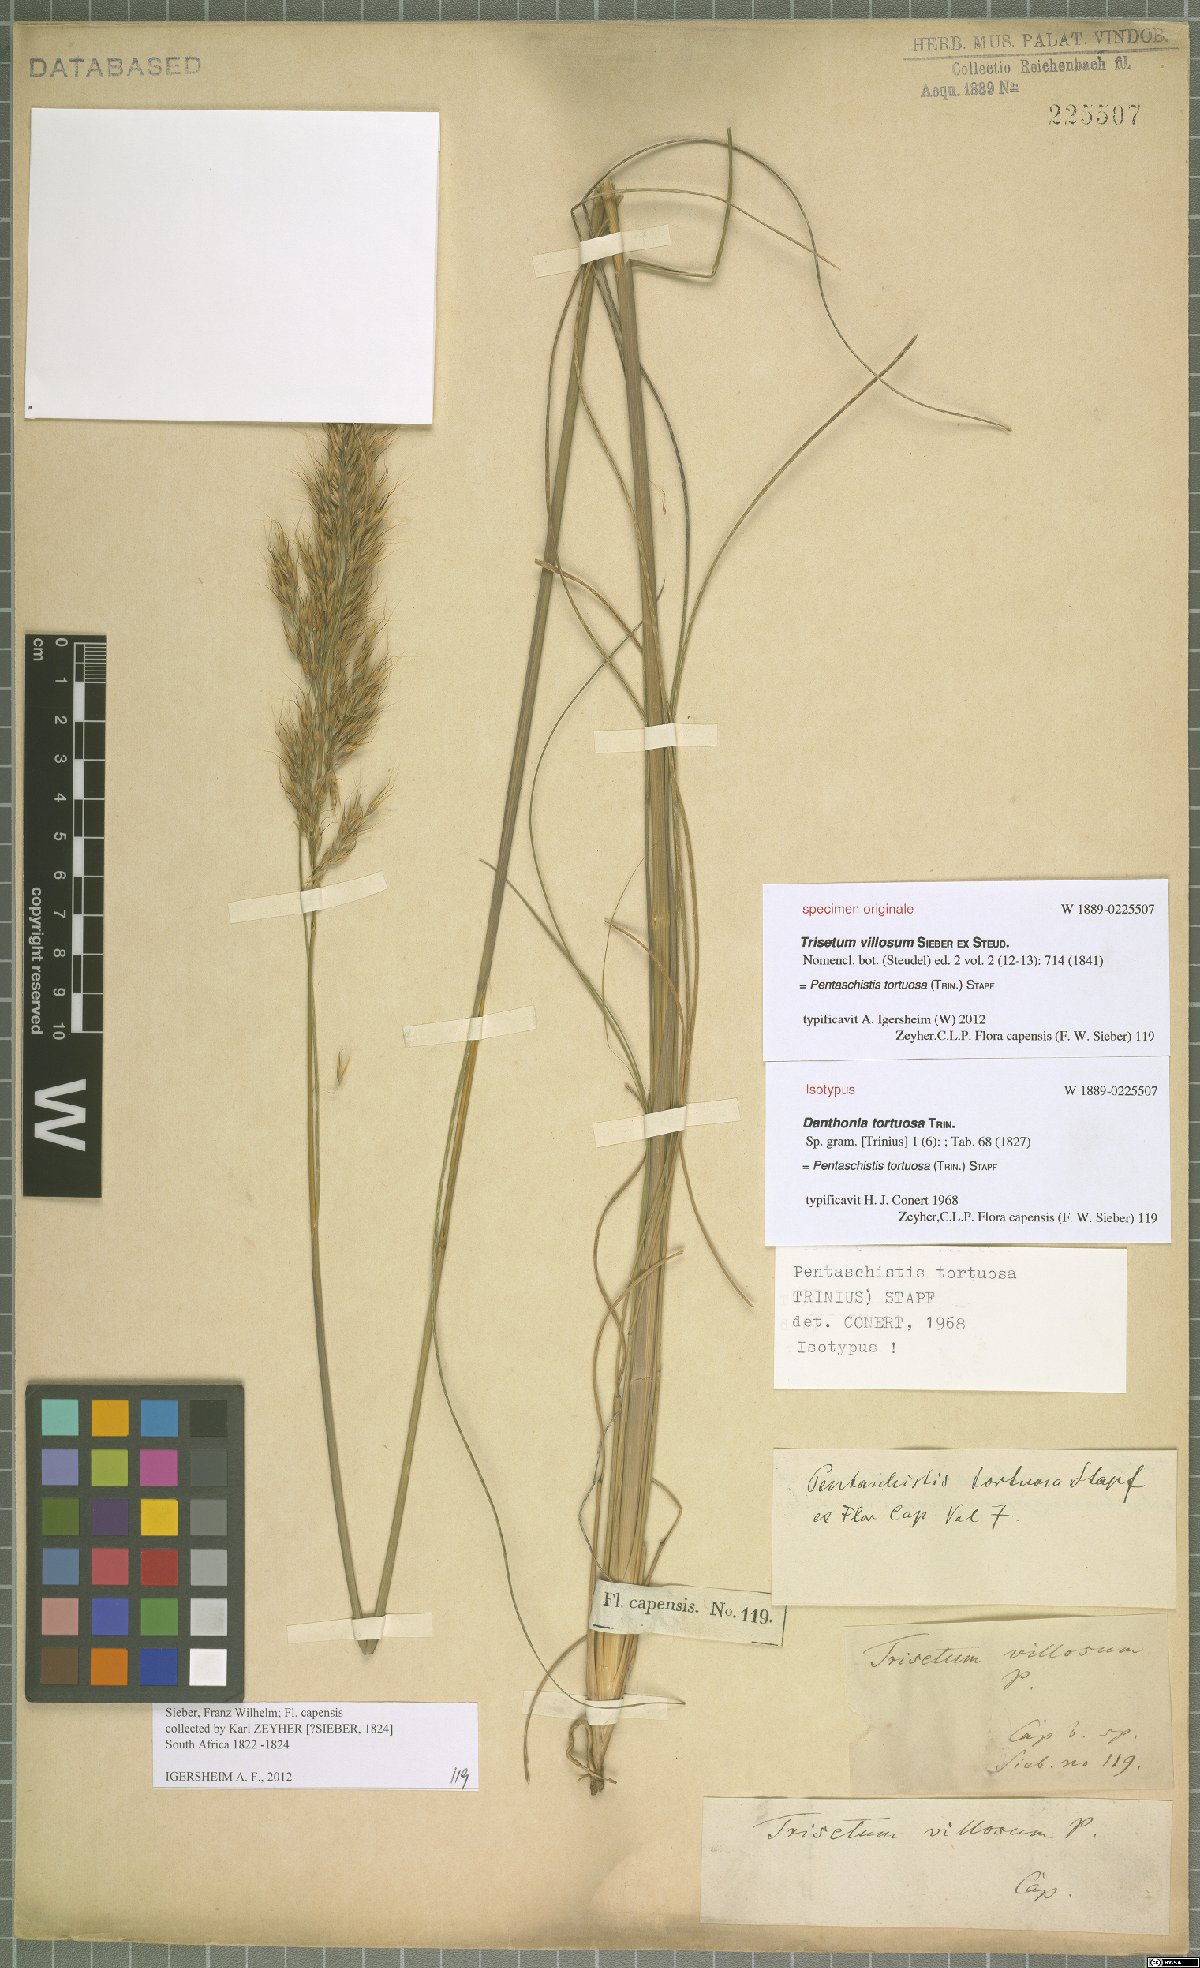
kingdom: Plantae
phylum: Tracheophyta
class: Liliopsida
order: Poales
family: Poaceae
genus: Pentameris
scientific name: Pentameris tortuosa
